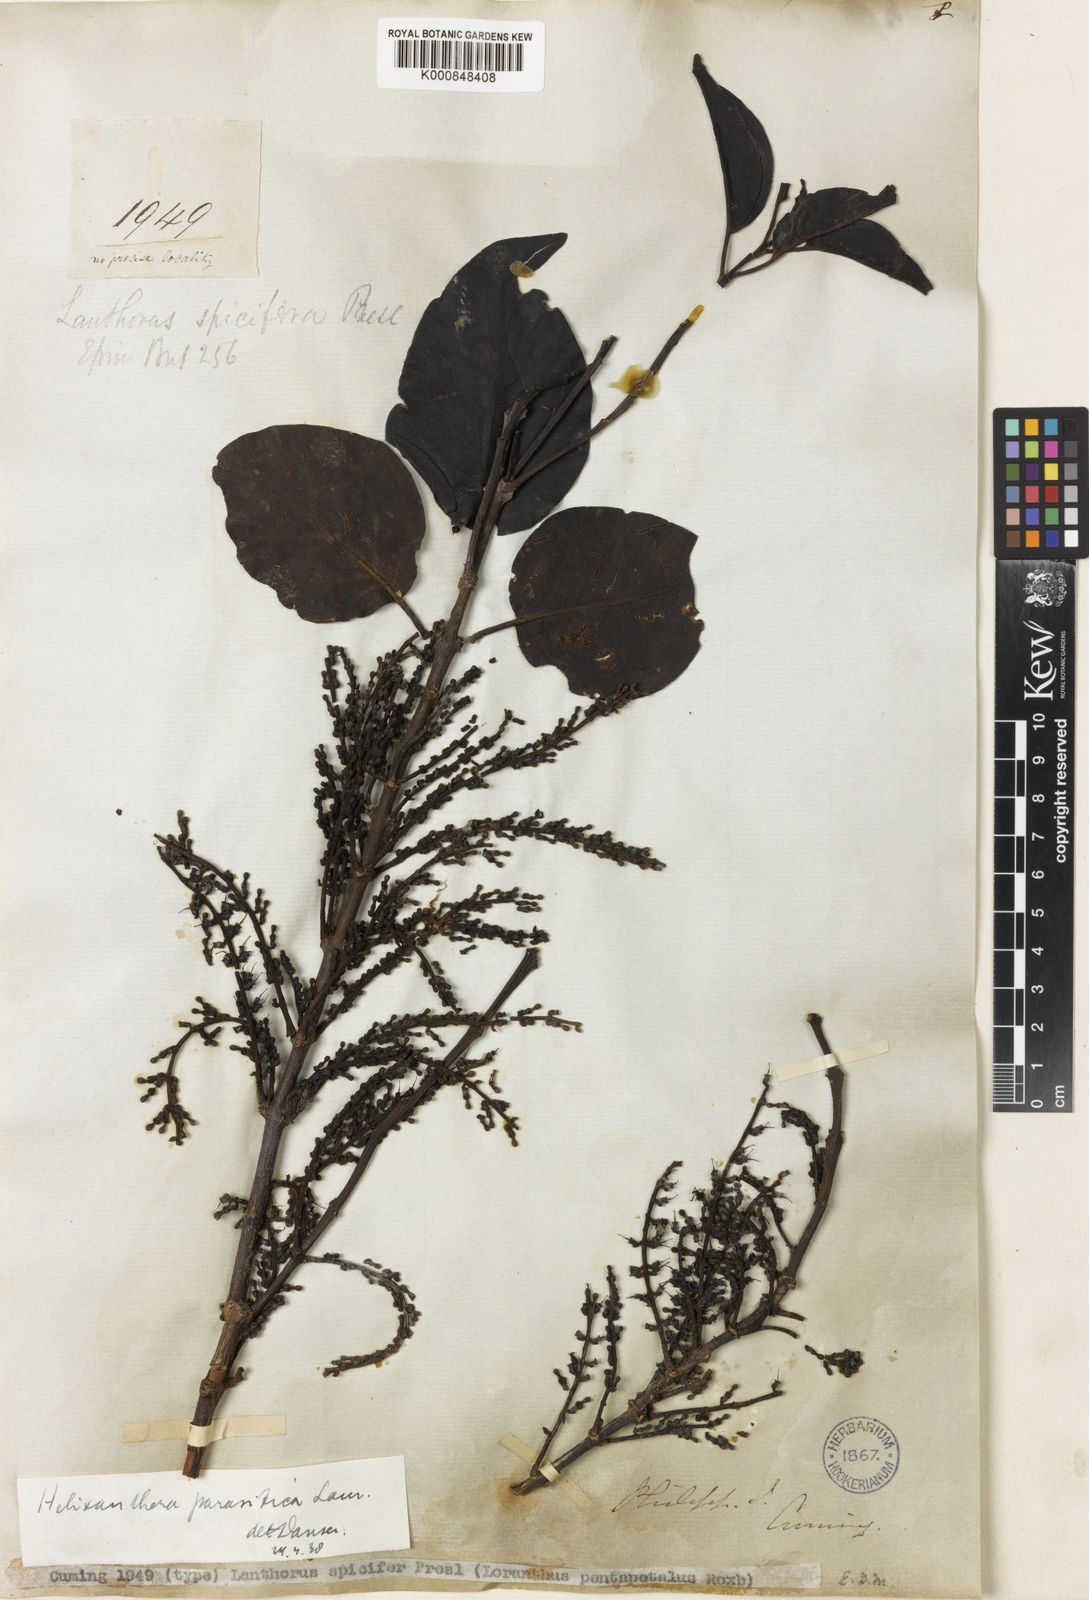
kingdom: Plantae
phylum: Tracheophyta
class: Magnoliopsida
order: Santalales
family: Loranthaceae
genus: Helixanthera
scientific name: Helixanthera parasitica
